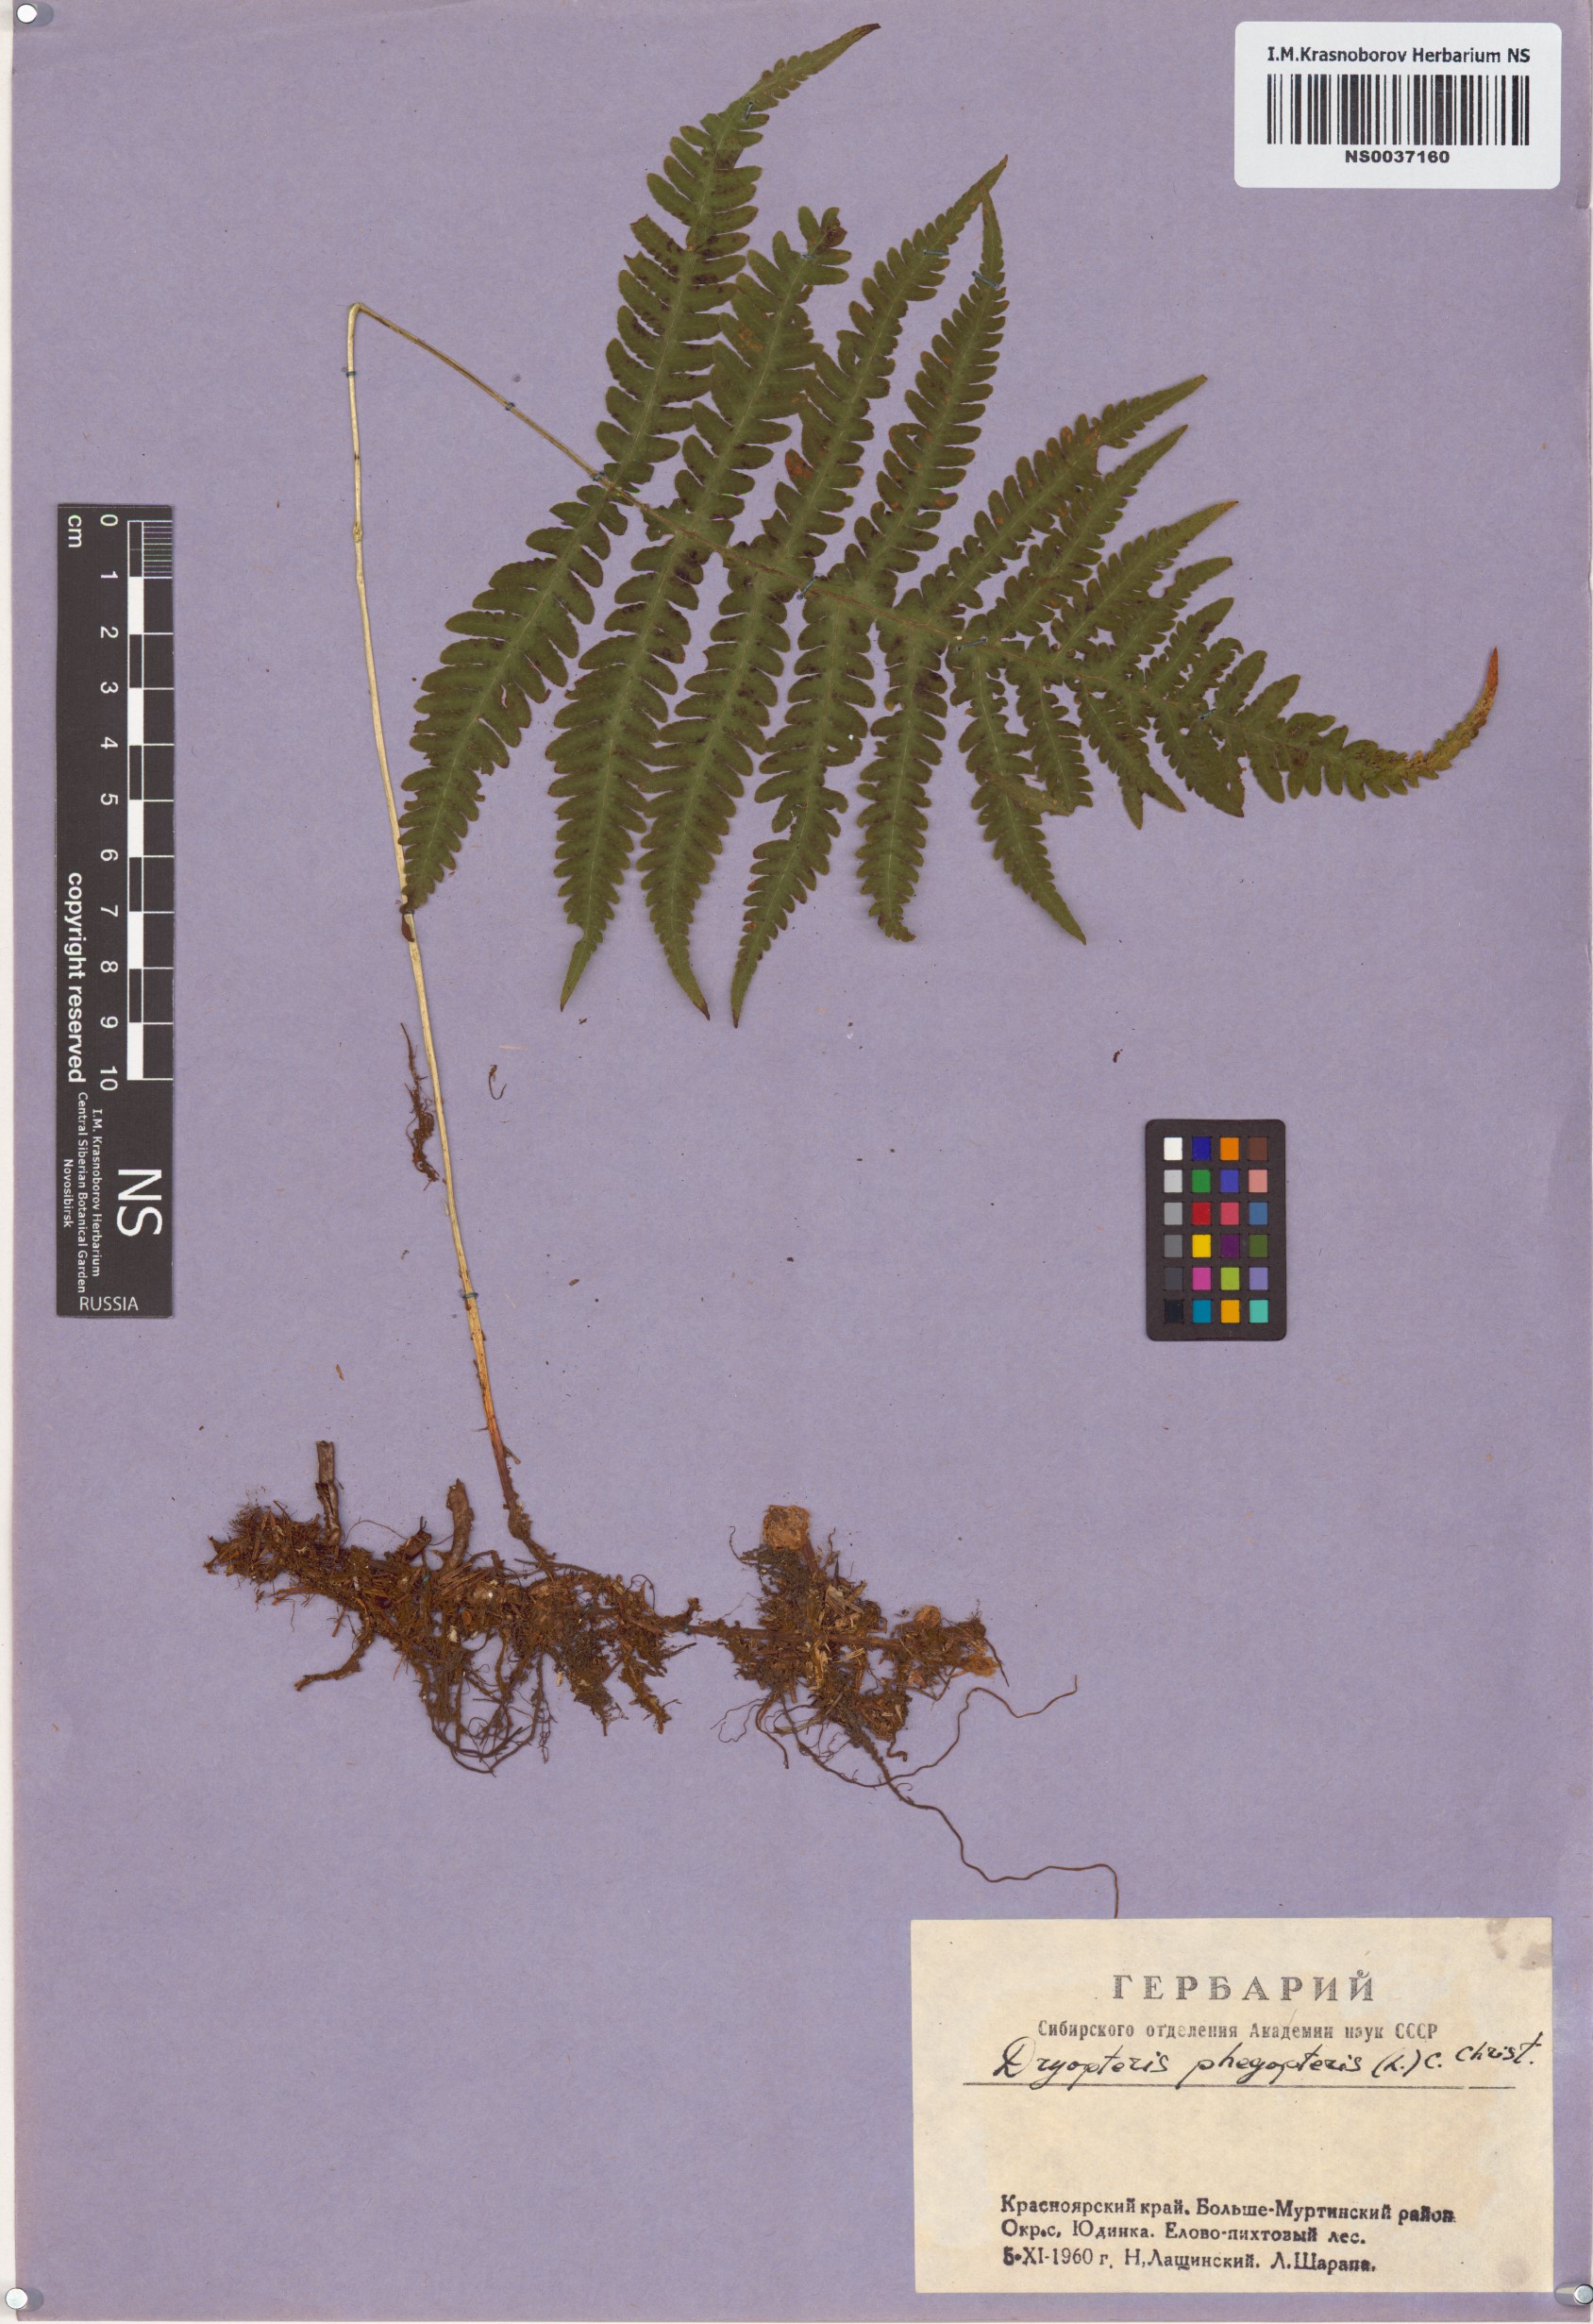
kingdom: Plantae
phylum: Tracheophyta
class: Polypodiopsida
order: Polypodiales
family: Thelypteridaceae
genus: Phegopteris
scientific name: Phegopteris connectilis
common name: Beech fern
